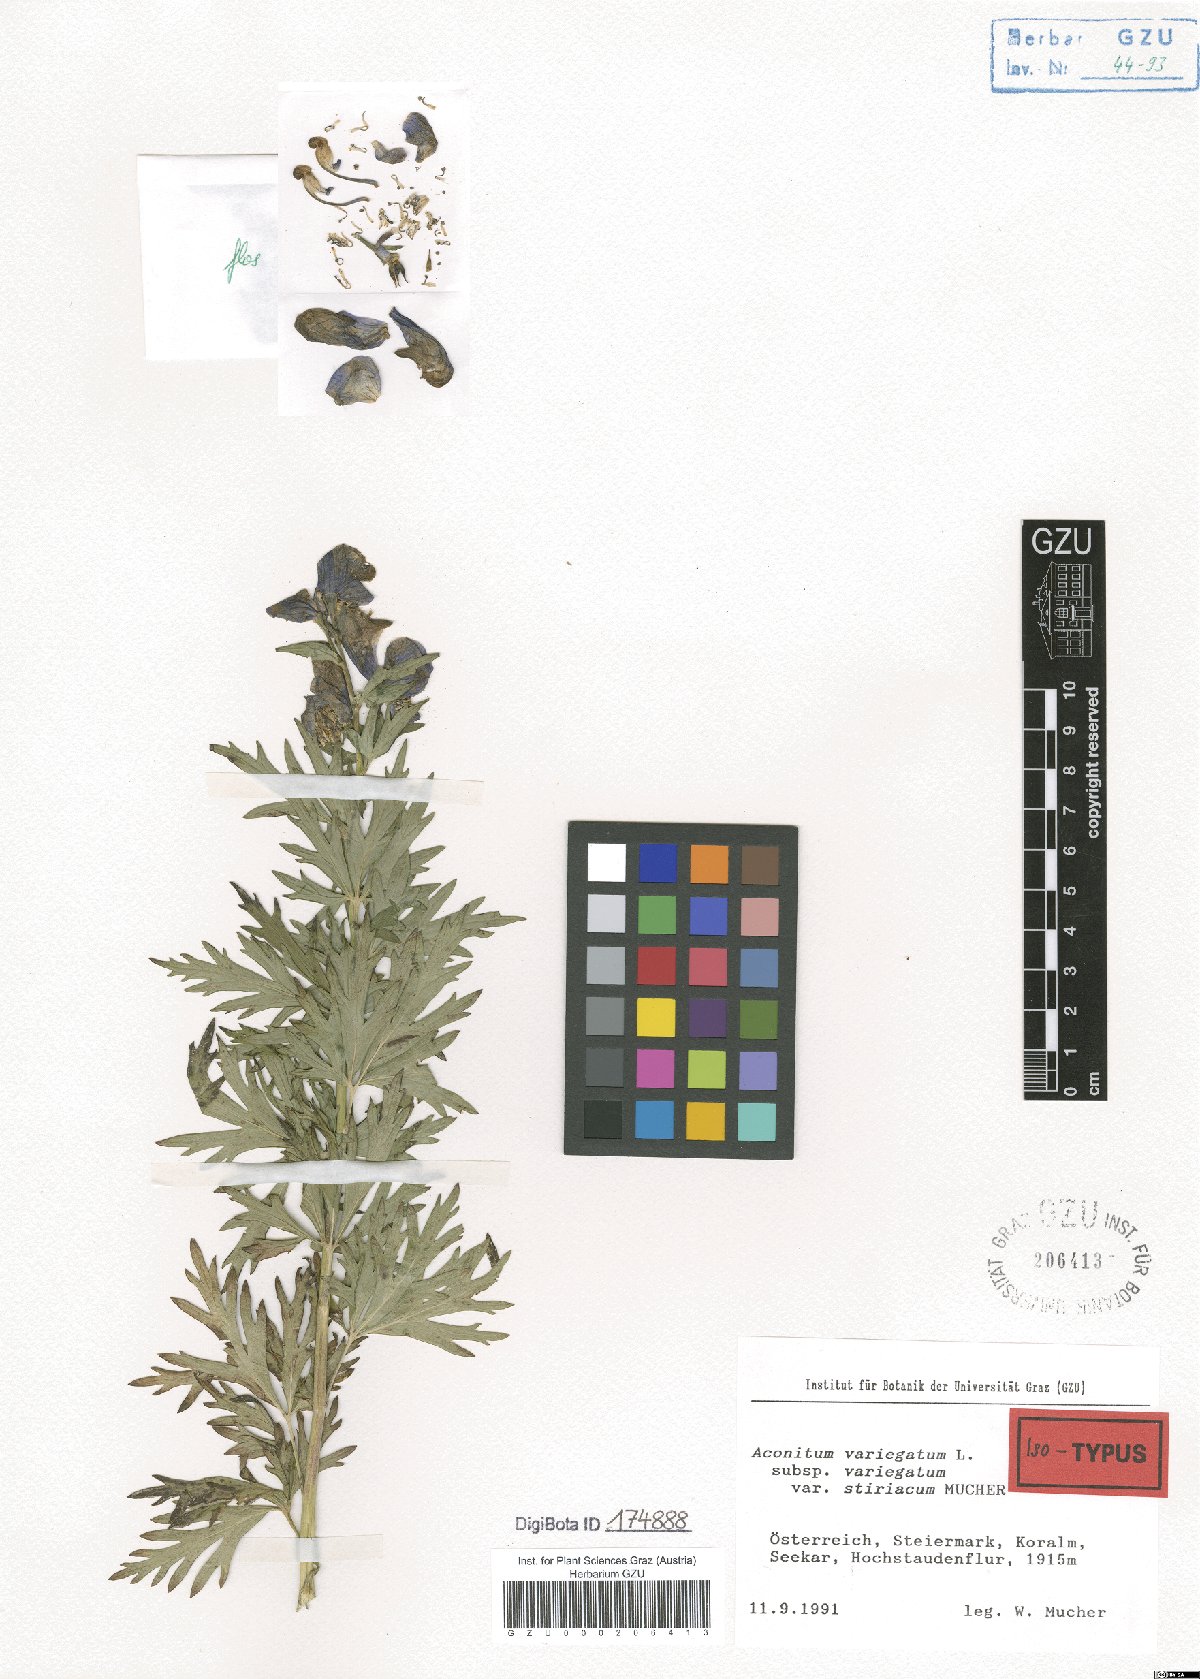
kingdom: Plantae
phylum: Tracheophyta
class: Magnoliopsida
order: Ranunculales
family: Ranunculaceae
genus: Aconitum
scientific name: Aconitum variegatum
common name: Manchurian monkshood
